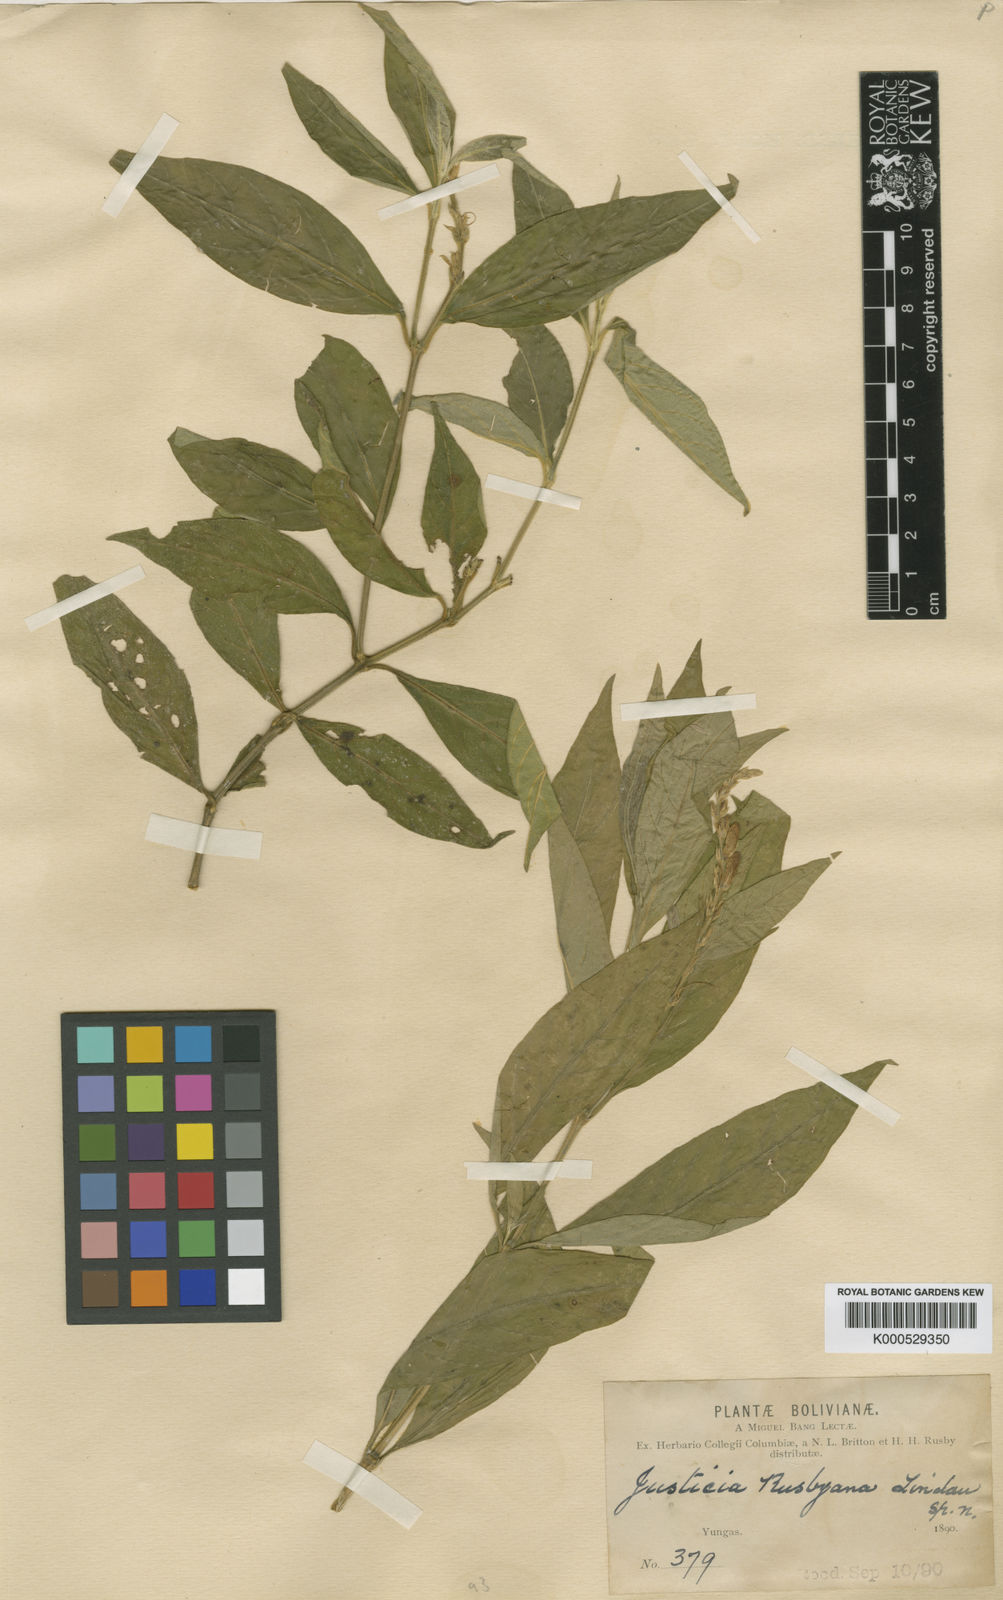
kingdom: Plantae
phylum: Tracheophyta
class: Magnoliopsida
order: Lamiales
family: Acanthaceae
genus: Justicia
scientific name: Justicia rusbyana
